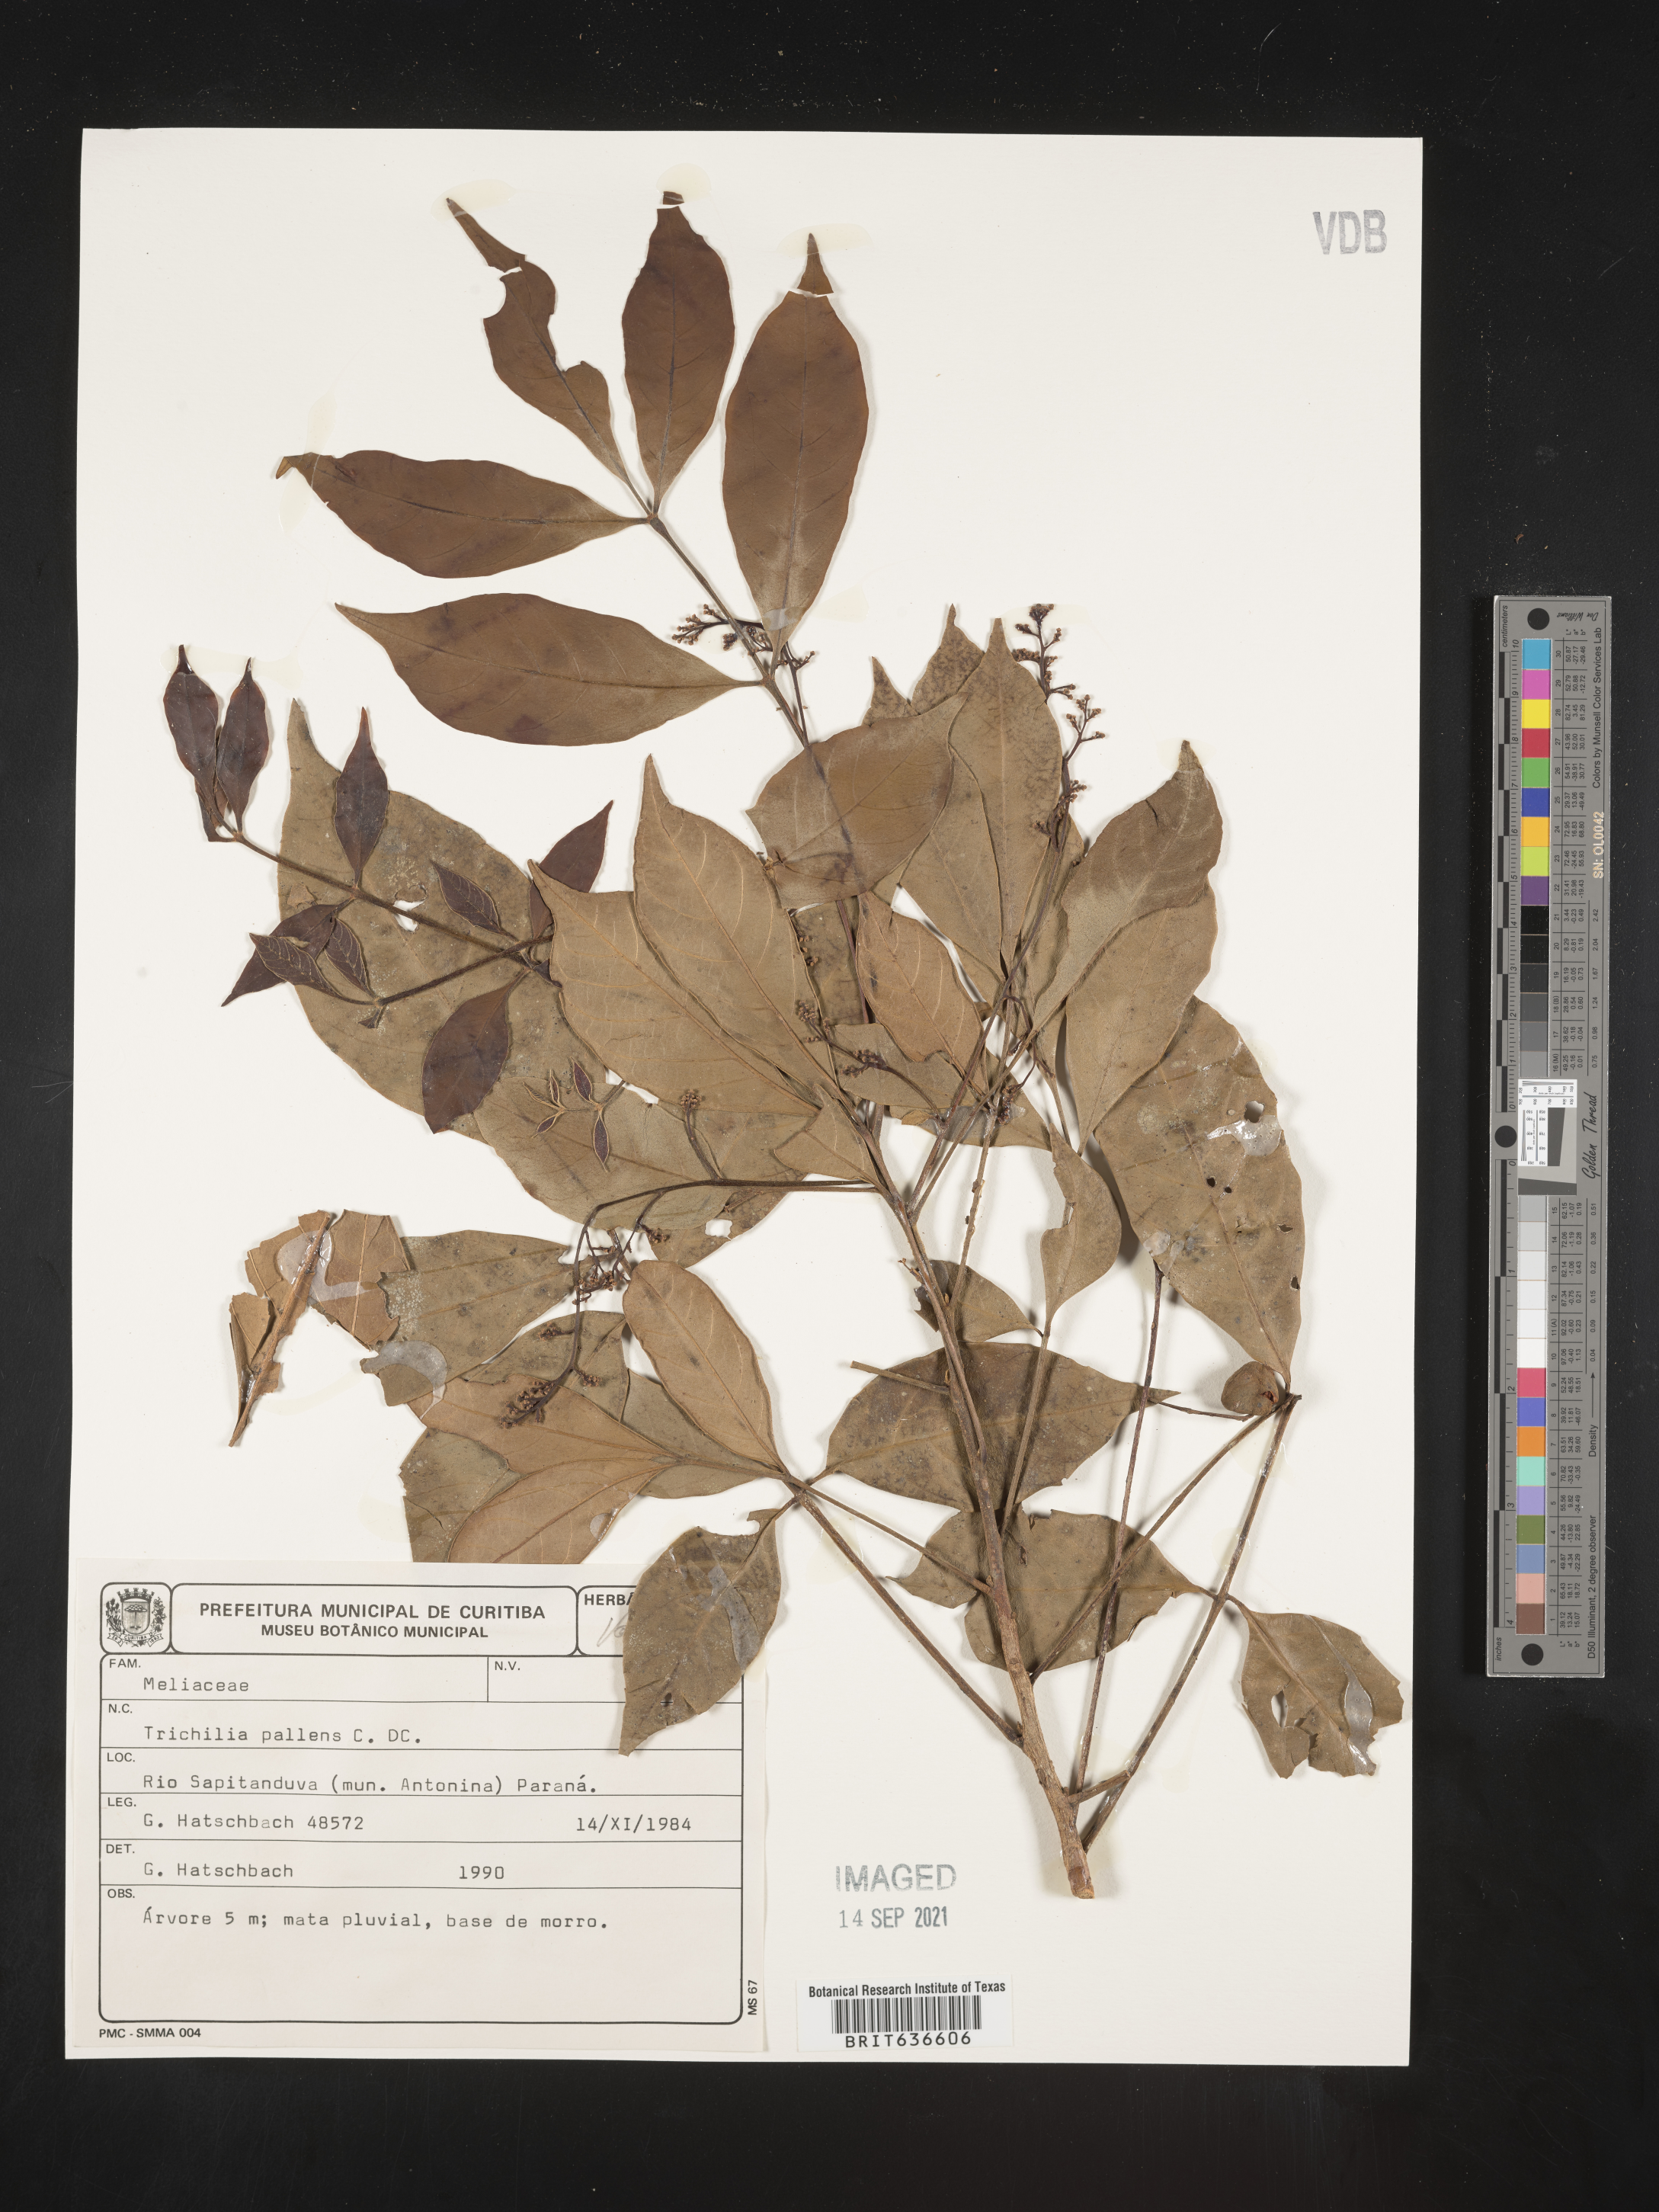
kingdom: Plantae
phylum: Tracheophyta
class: Magnoliopsida
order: Sapindales
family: Meliaceae
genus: Trichilia
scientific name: Trichilia
